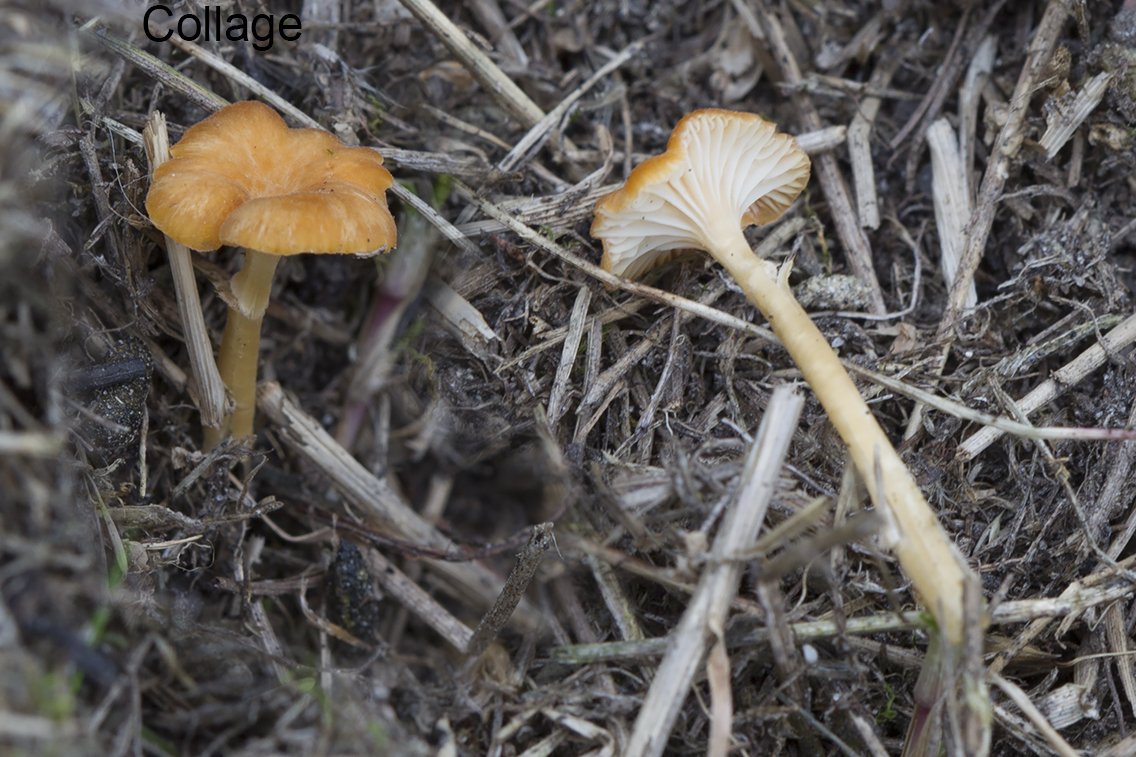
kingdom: Fungi
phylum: Basidiomycota
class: Agaricomycetes
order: Hymenochaetales
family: Rickenellaceae
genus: Rickenella
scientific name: Rickenella
